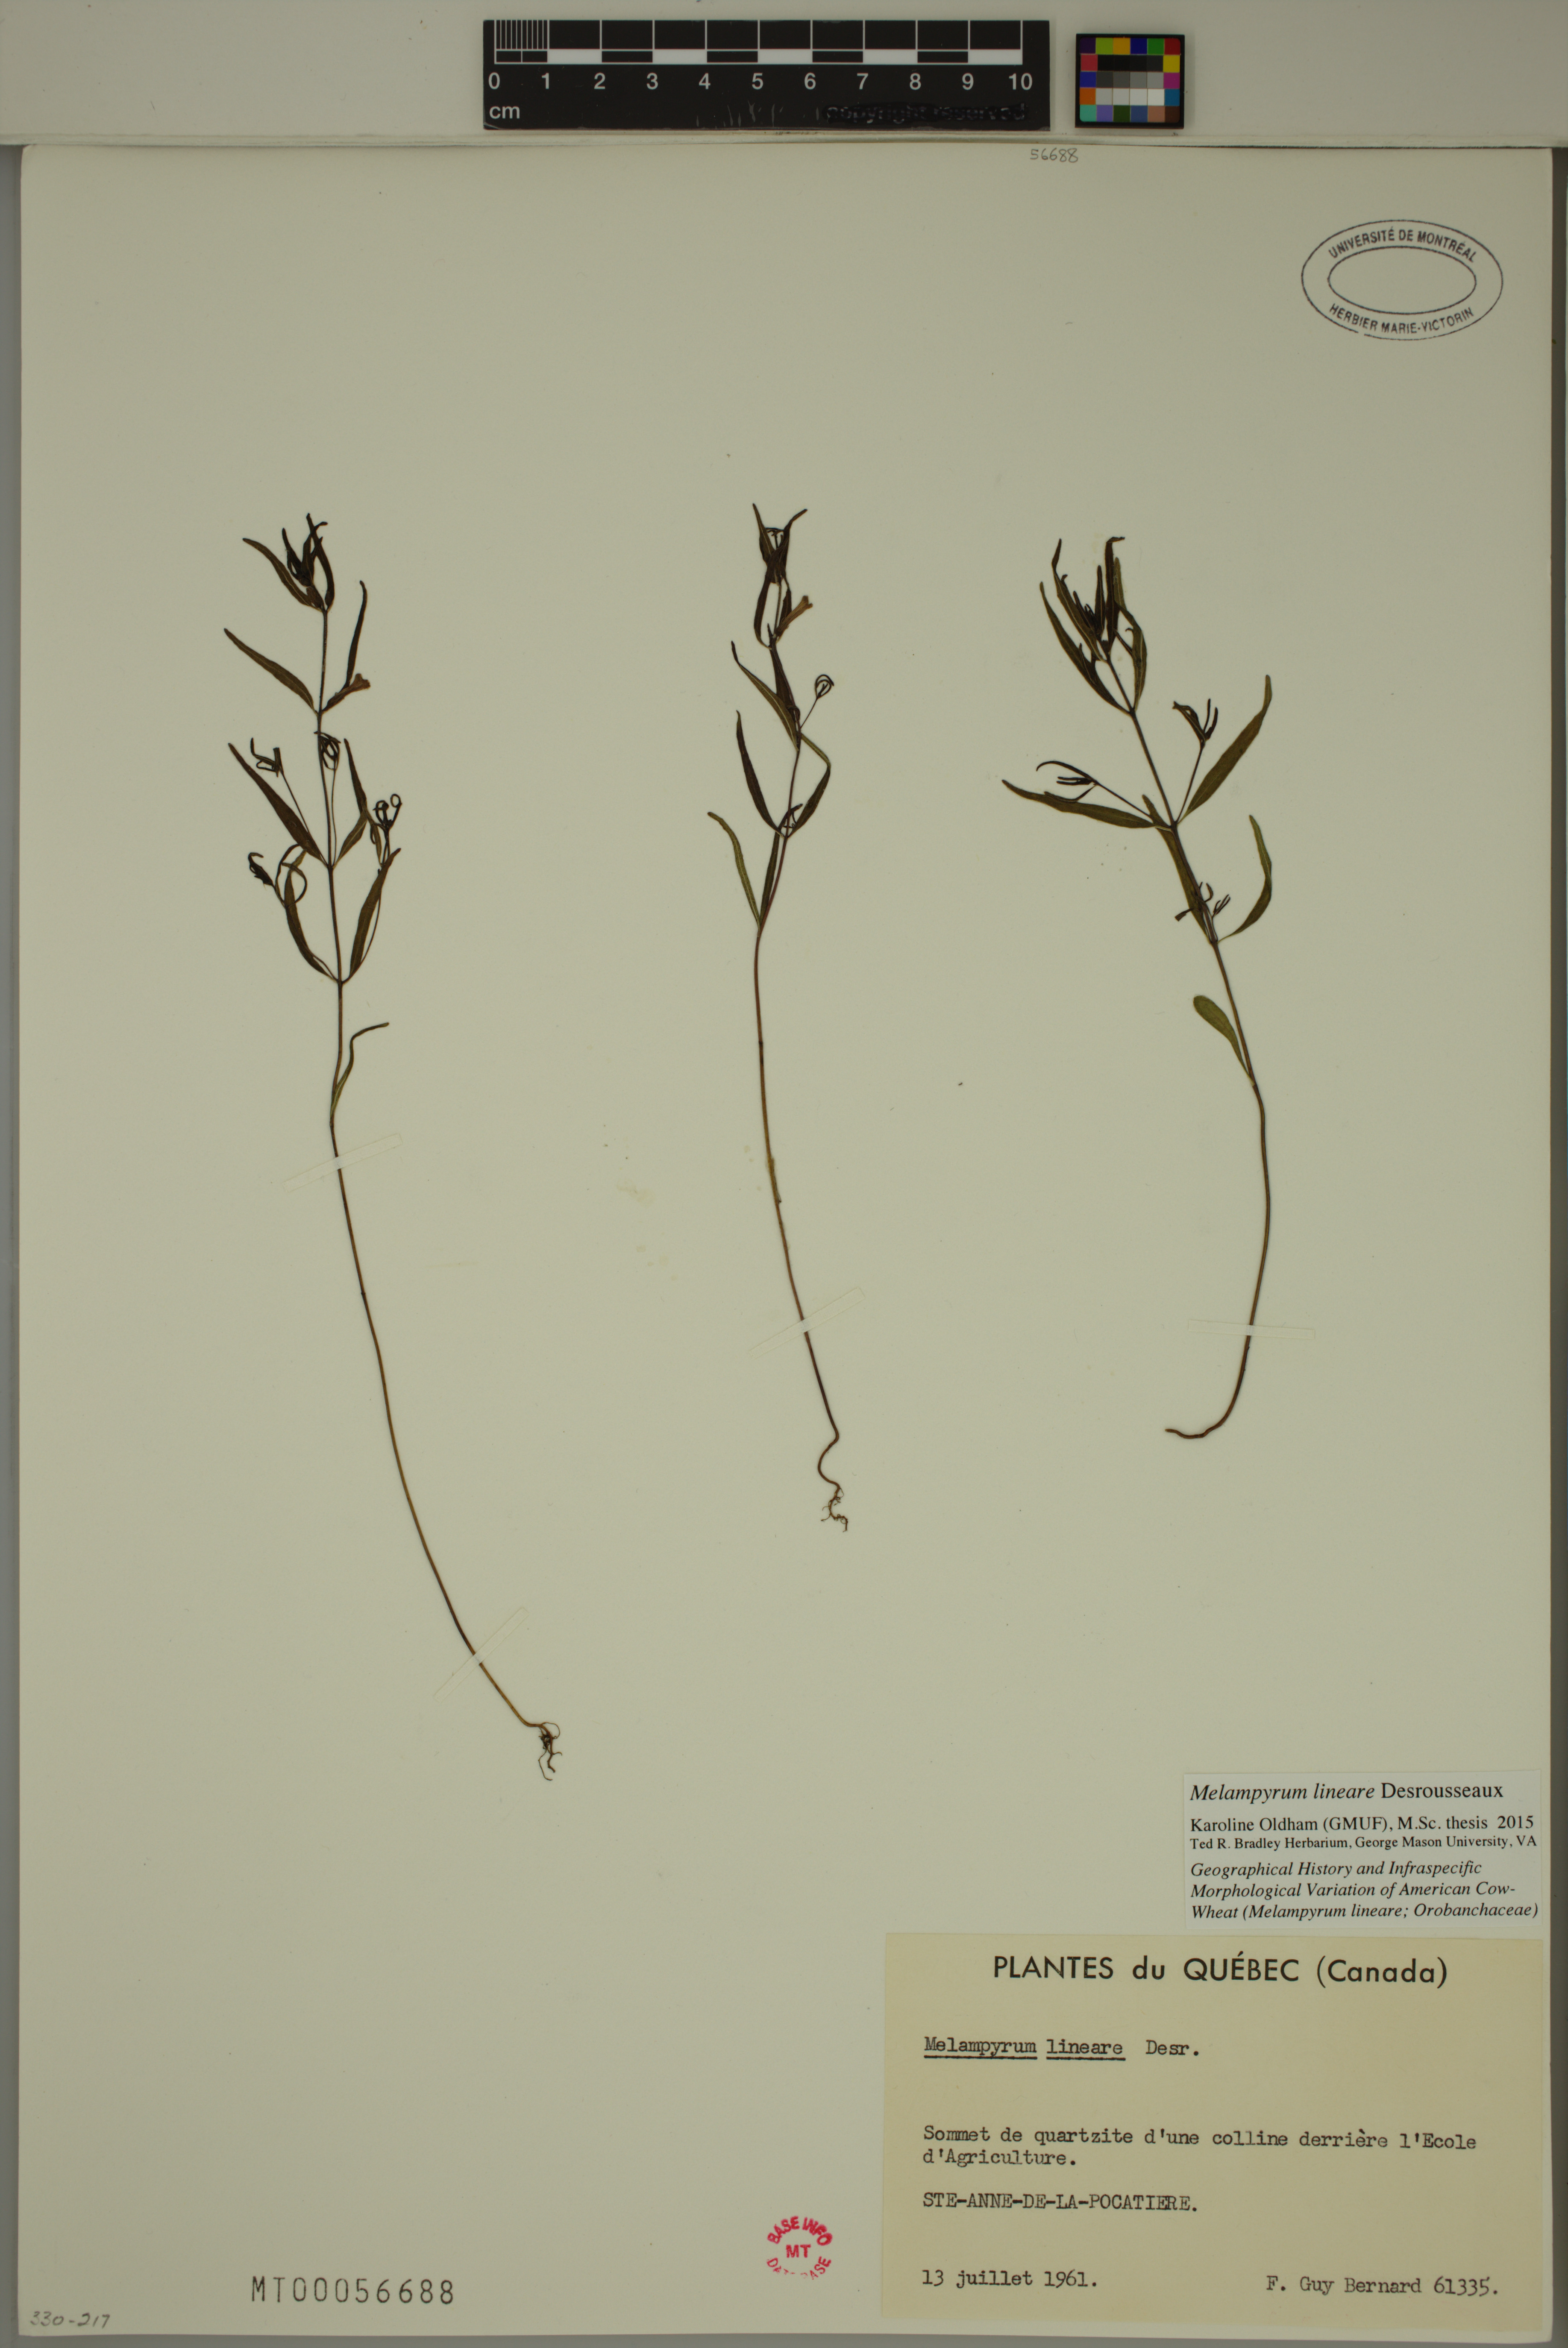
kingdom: Plantae
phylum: Tracheophyta
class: Magnoliopsida
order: Lamiales
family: Orobanchaceae
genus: Melampyrum
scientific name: Melampyrum lineare
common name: American cow-wheat
